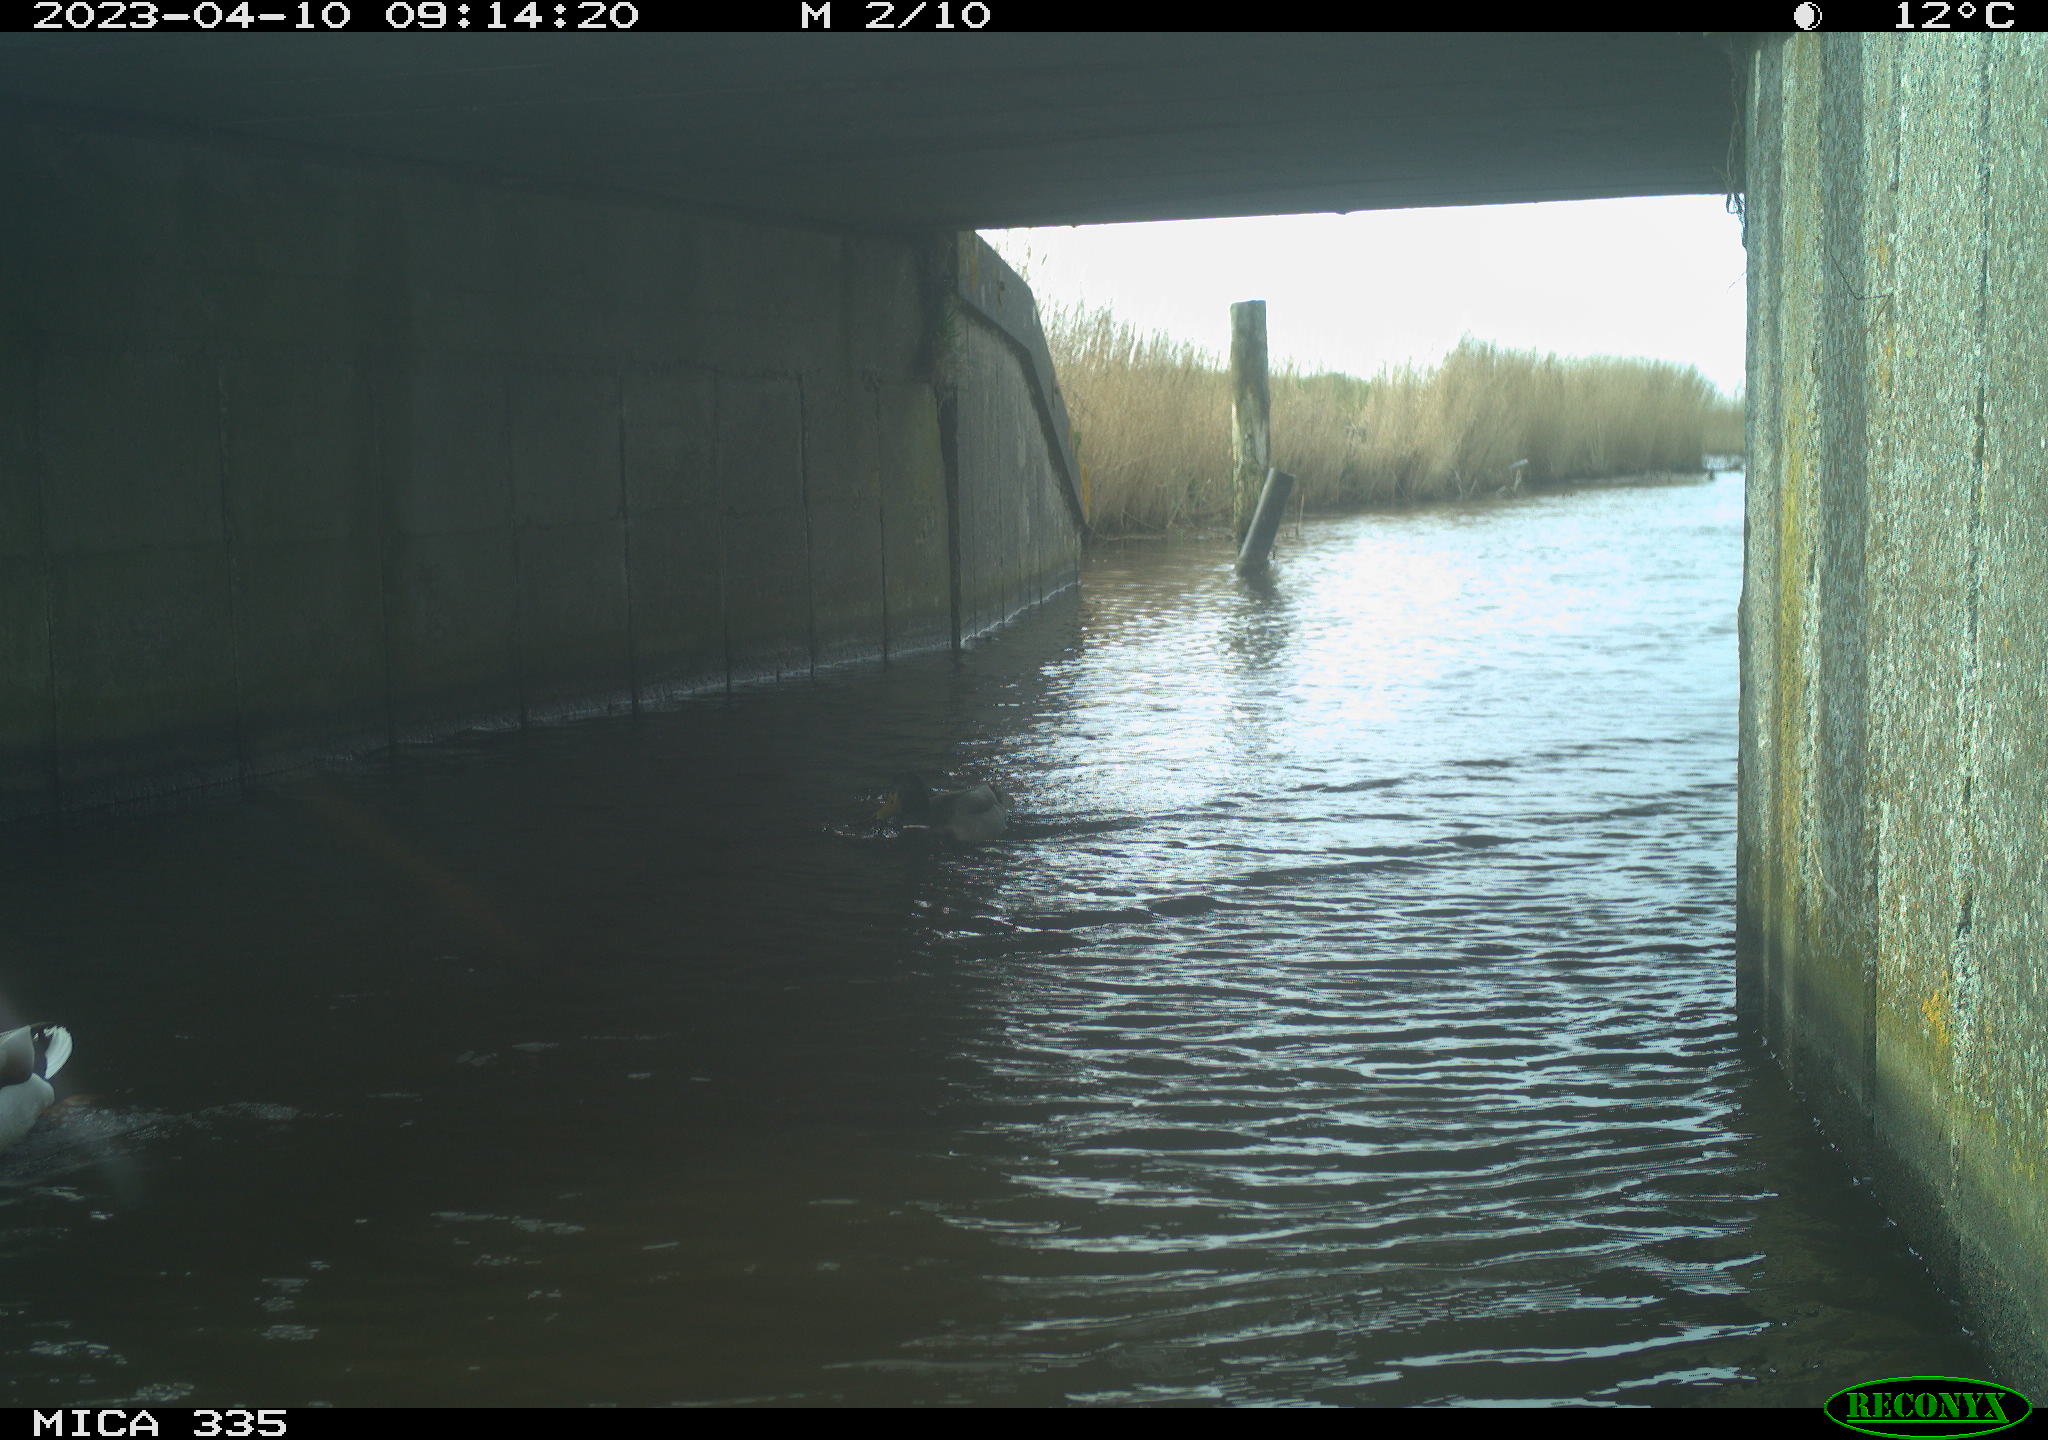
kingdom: Animalia
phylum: Chordata
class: Aves
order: Anseriformes
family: Anatidae
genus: Anas
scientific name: Anas
